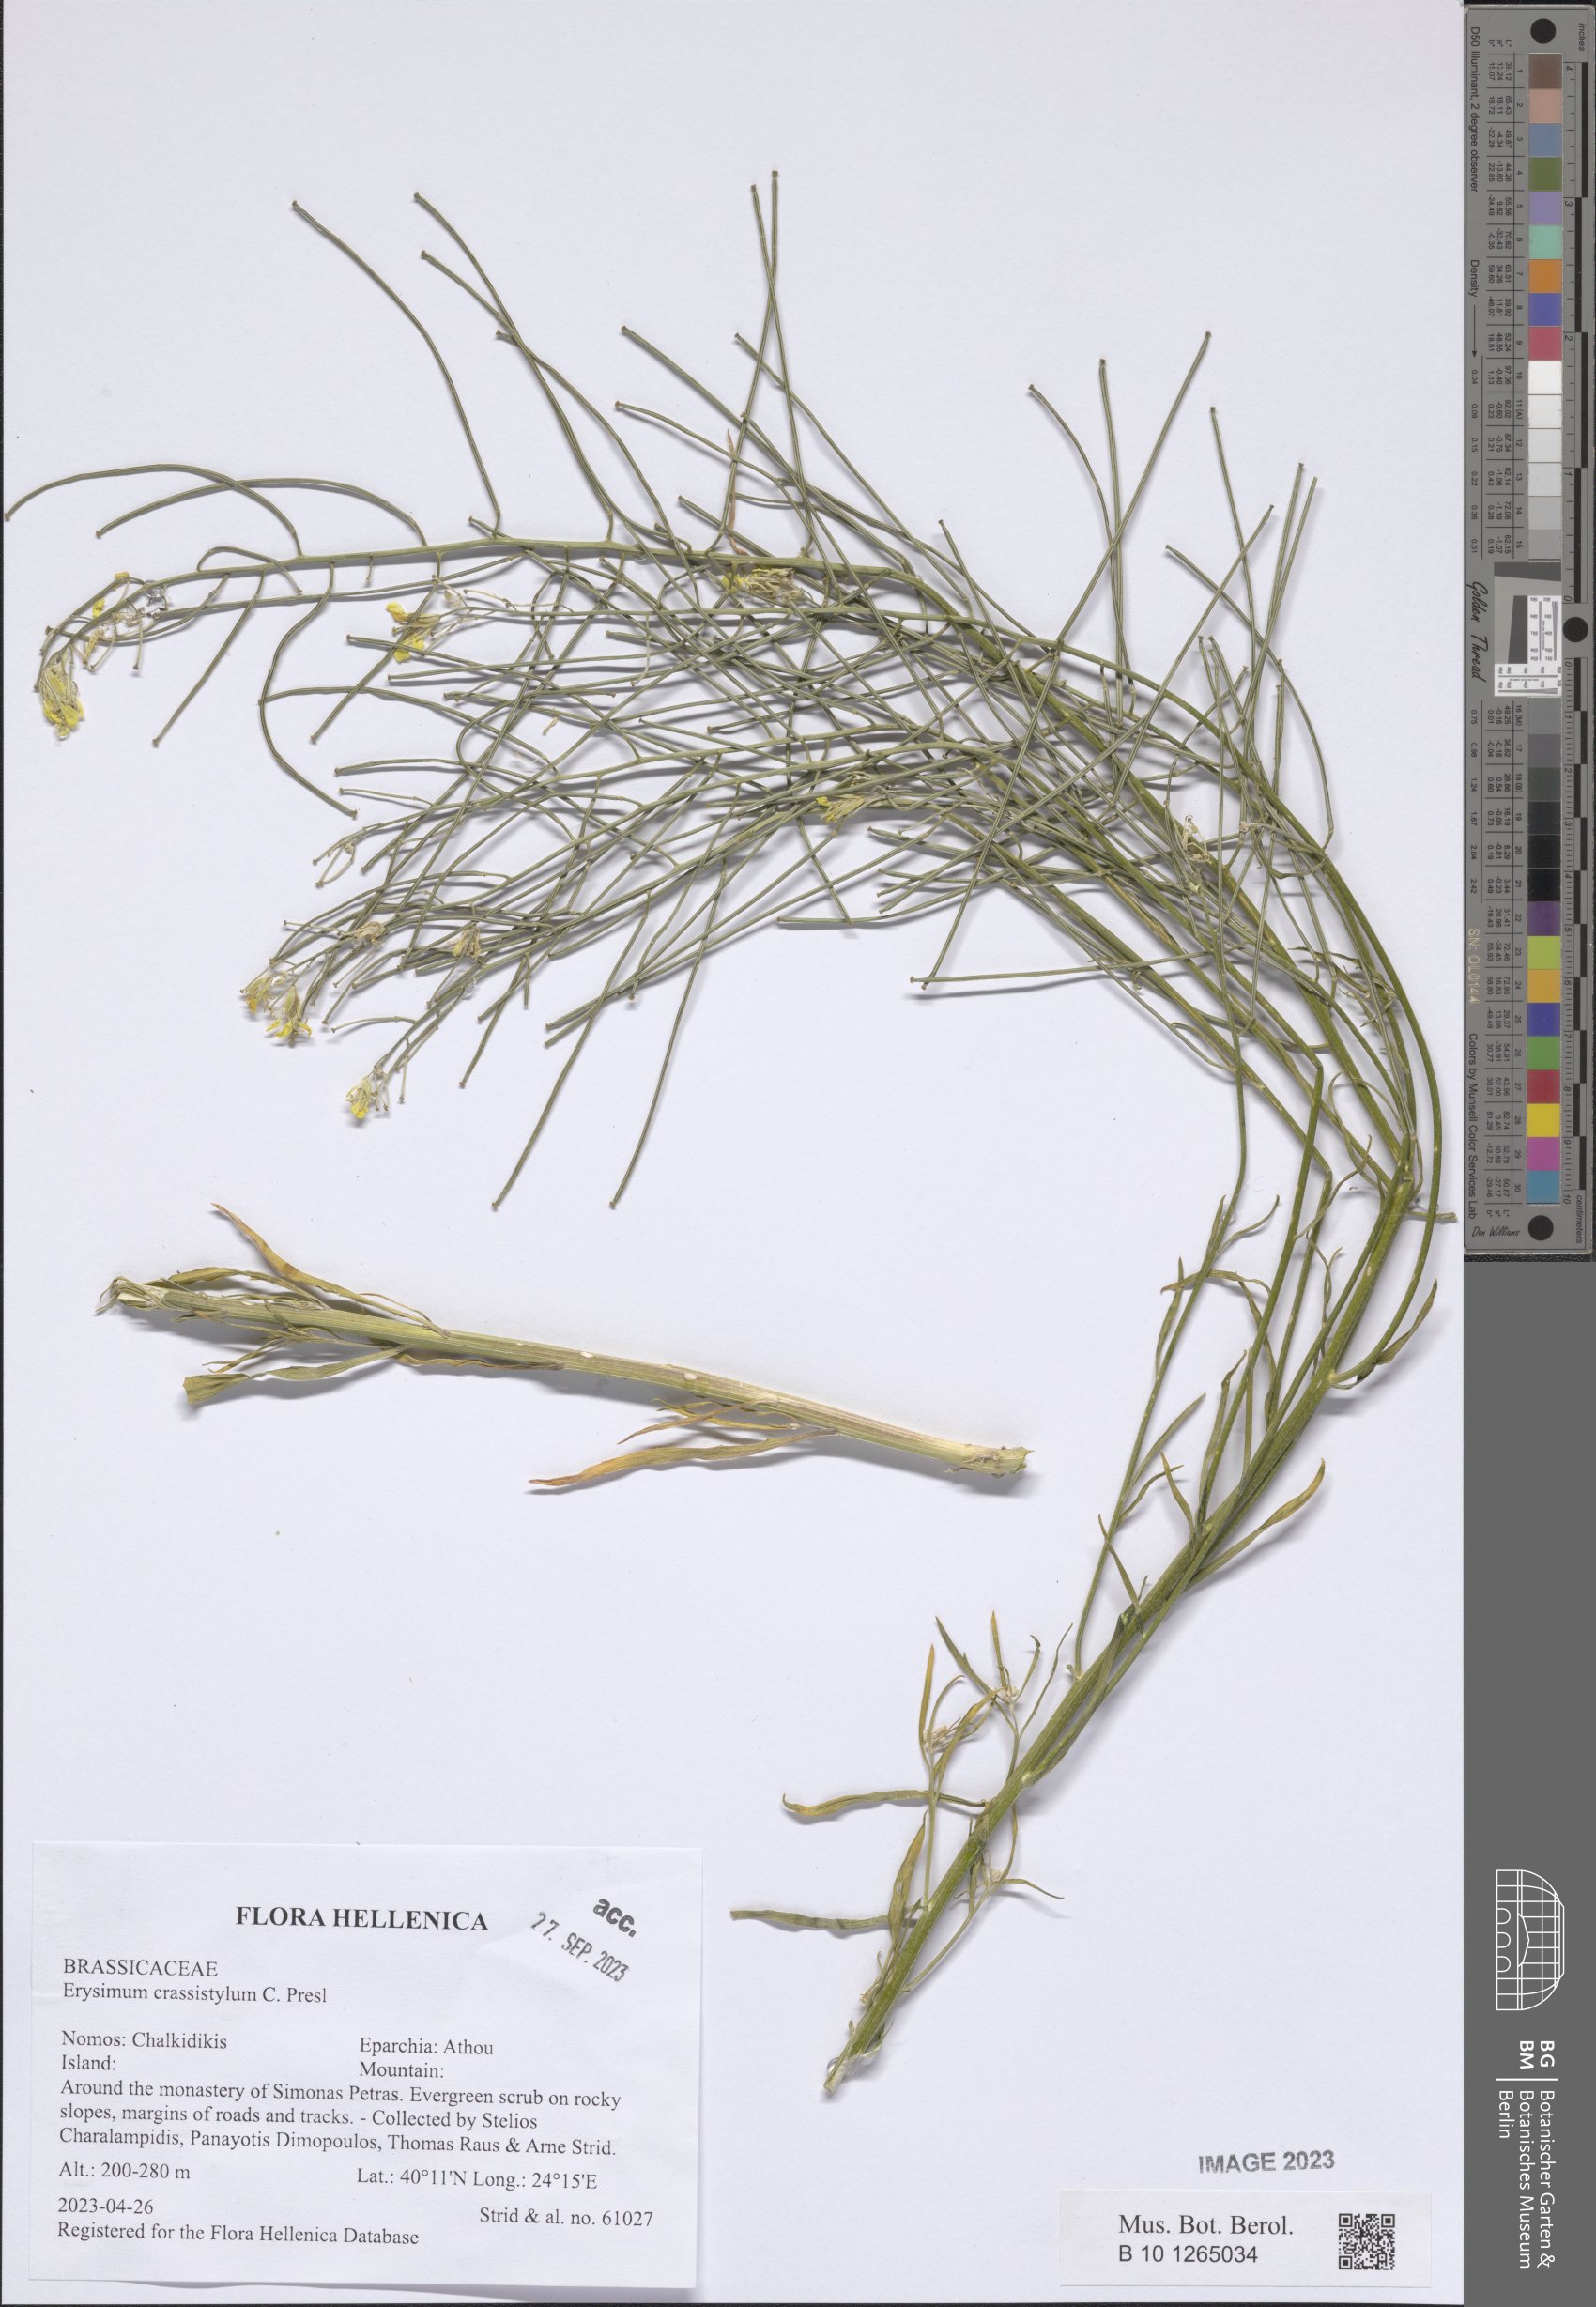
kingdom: Plantae
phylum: Tracheophyta
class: Magnoliopsida
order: Brassicales
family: Brassicaceae
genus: Erysimum
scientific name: Erysimum crassistylum
